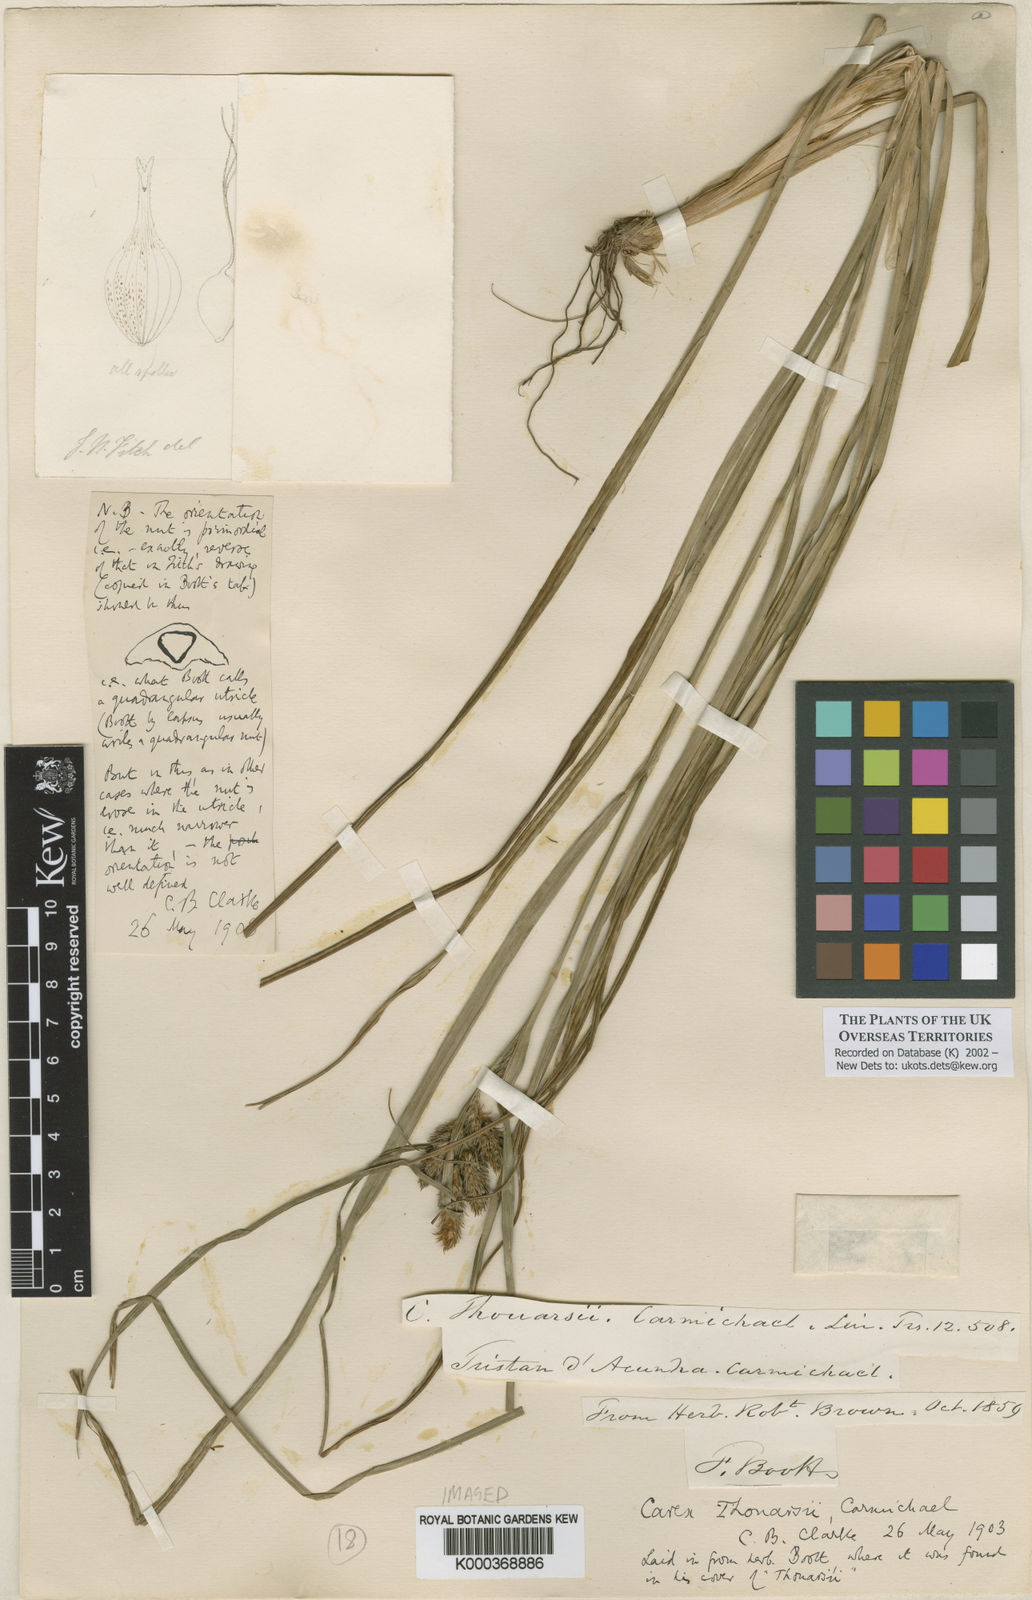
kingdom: Plantae
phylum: Tracheophyta
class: Liliopsida
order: Poales
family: Cyperaceae
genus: Carex
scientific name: Carex mannii
